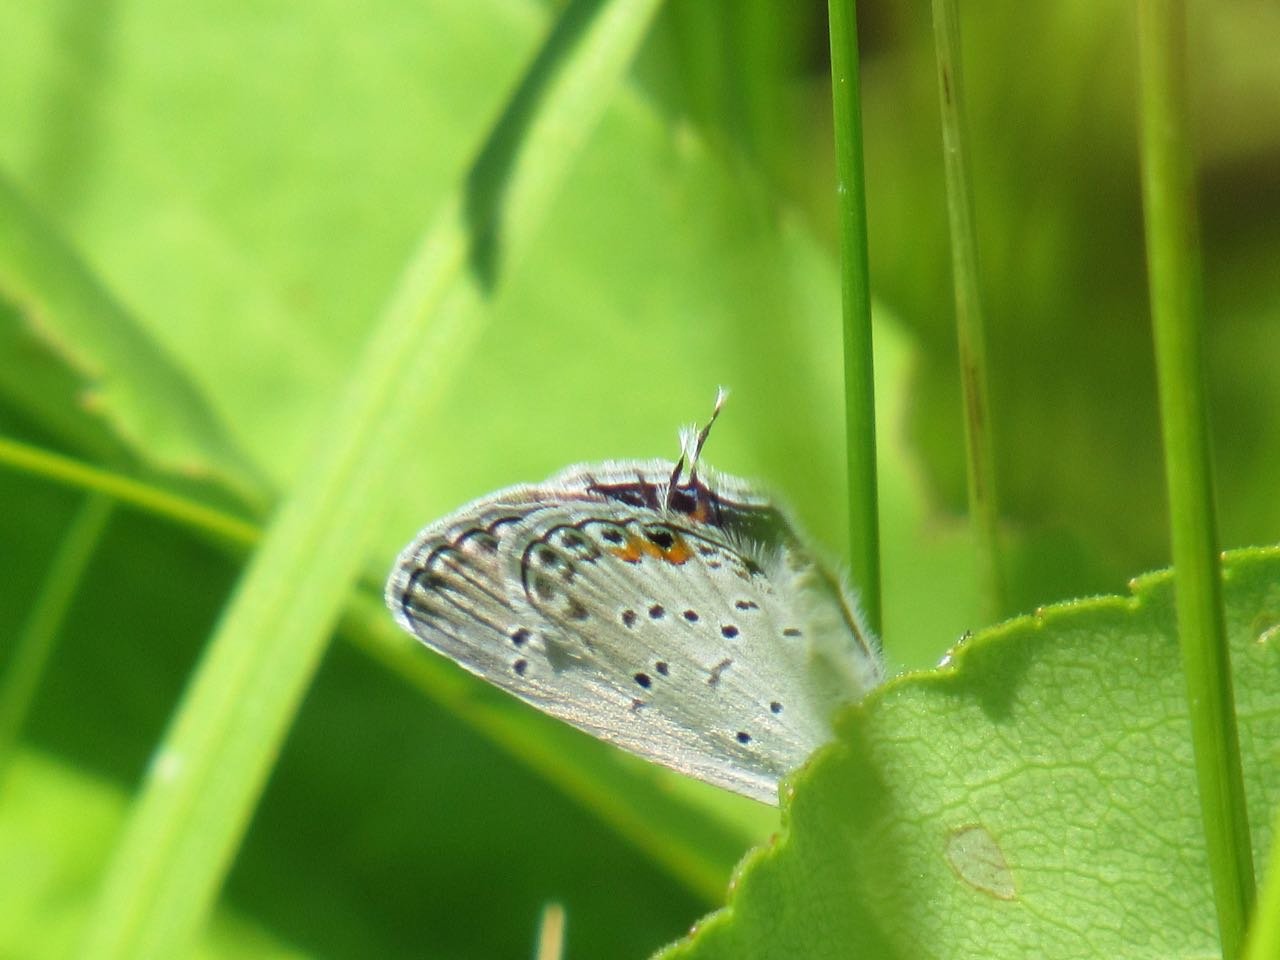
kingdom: Animalia
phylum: Arthropoda
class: Insecta
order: Lepidoptera
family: Lycaenidae
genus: Elkalyce
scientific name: Elkalyce comyntas
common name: Eastern Tailed-Blue
